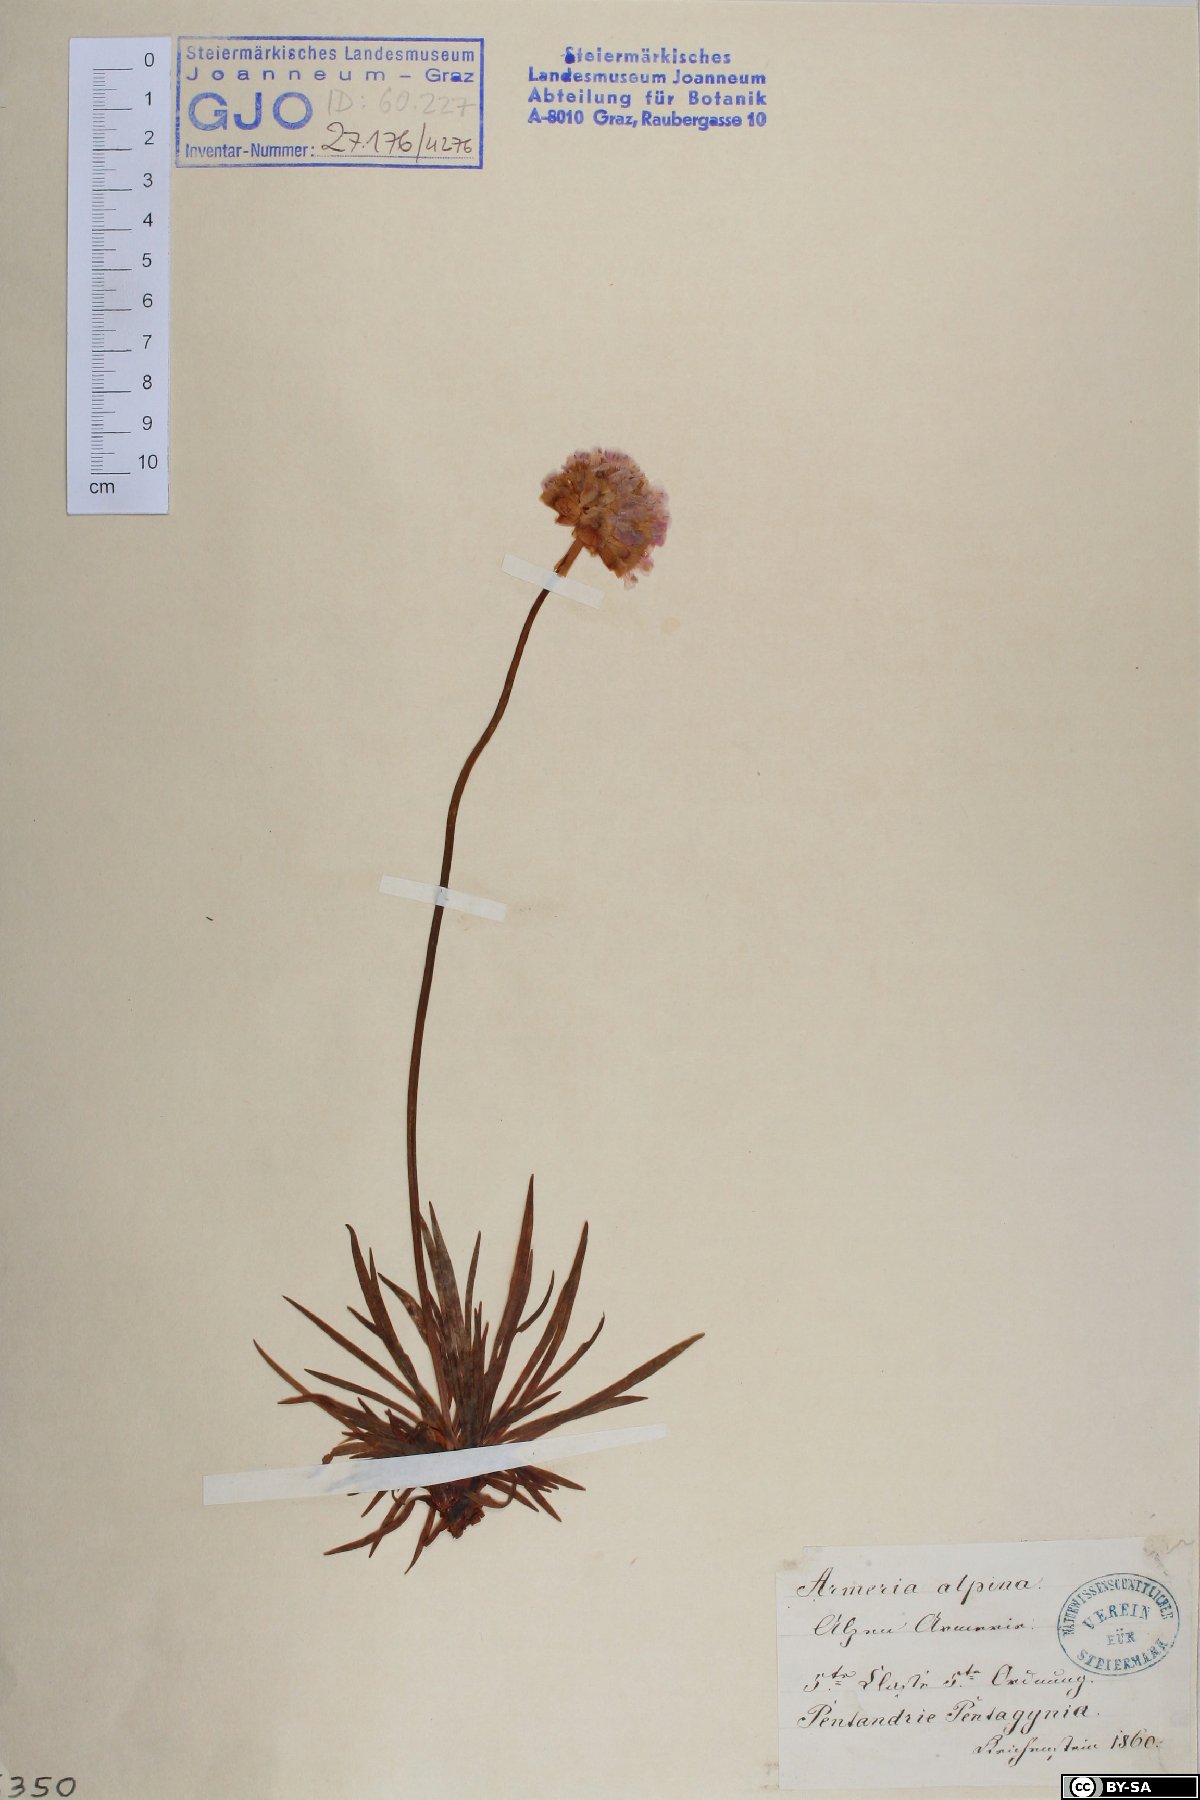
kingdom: Plantae
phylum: Tracheophyta
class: Magnoliopsida
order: Caryophyllales
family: Plumbaginaceae
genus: Armeria
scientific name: Armeria alpina
